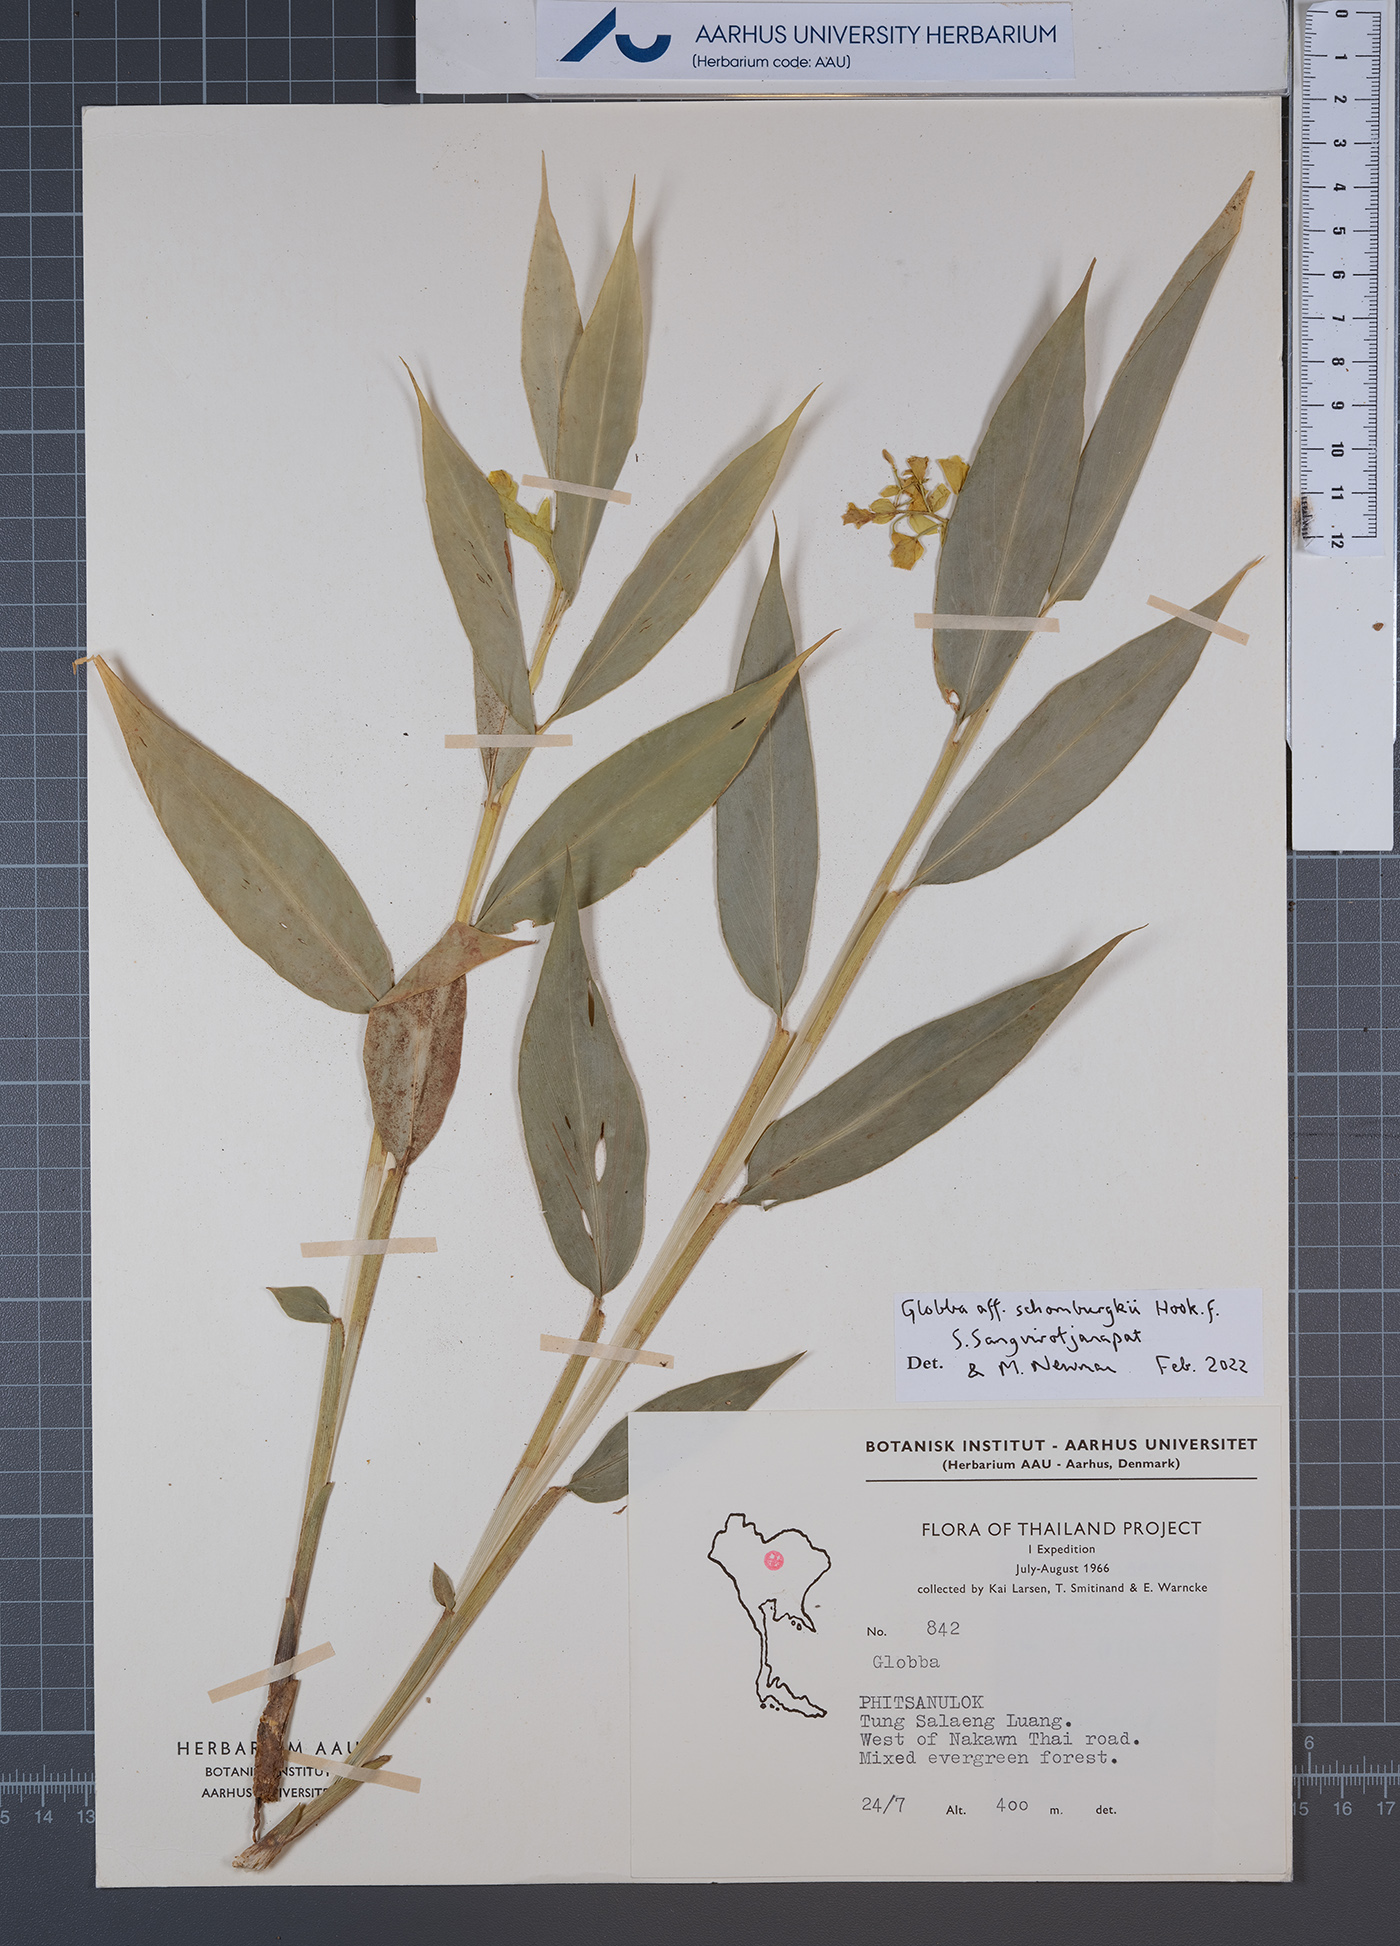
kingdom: Plantae
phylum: Tracheophyta
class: Liliopsida
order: Zingiberales
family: Zingiberaceae
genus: Globba
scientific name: Globba schomburgkii
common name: Dancing girl ginger
